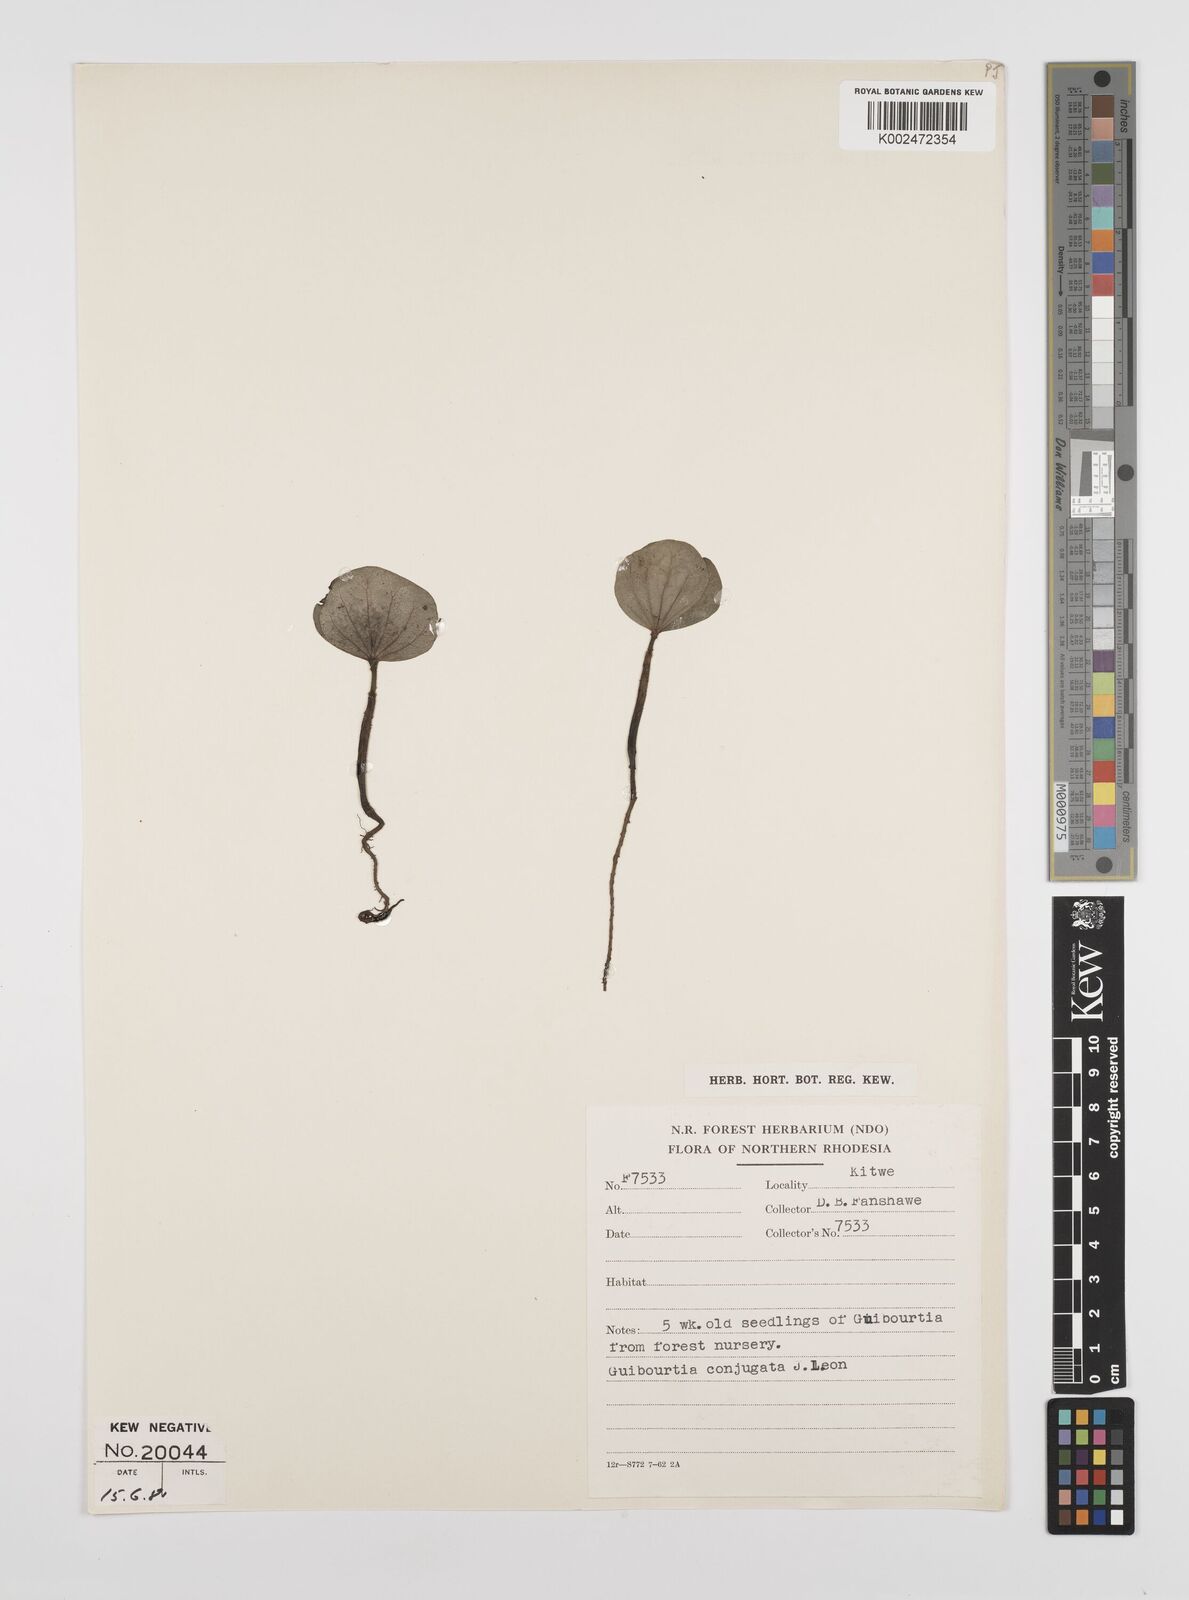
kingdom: Plantae
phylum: Tracheophyta
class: Magnoliopsida
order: Fabales
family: Fabaceae
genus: Guibourtia
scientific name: Guibourtia conjugata
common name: Small bastard mopane
